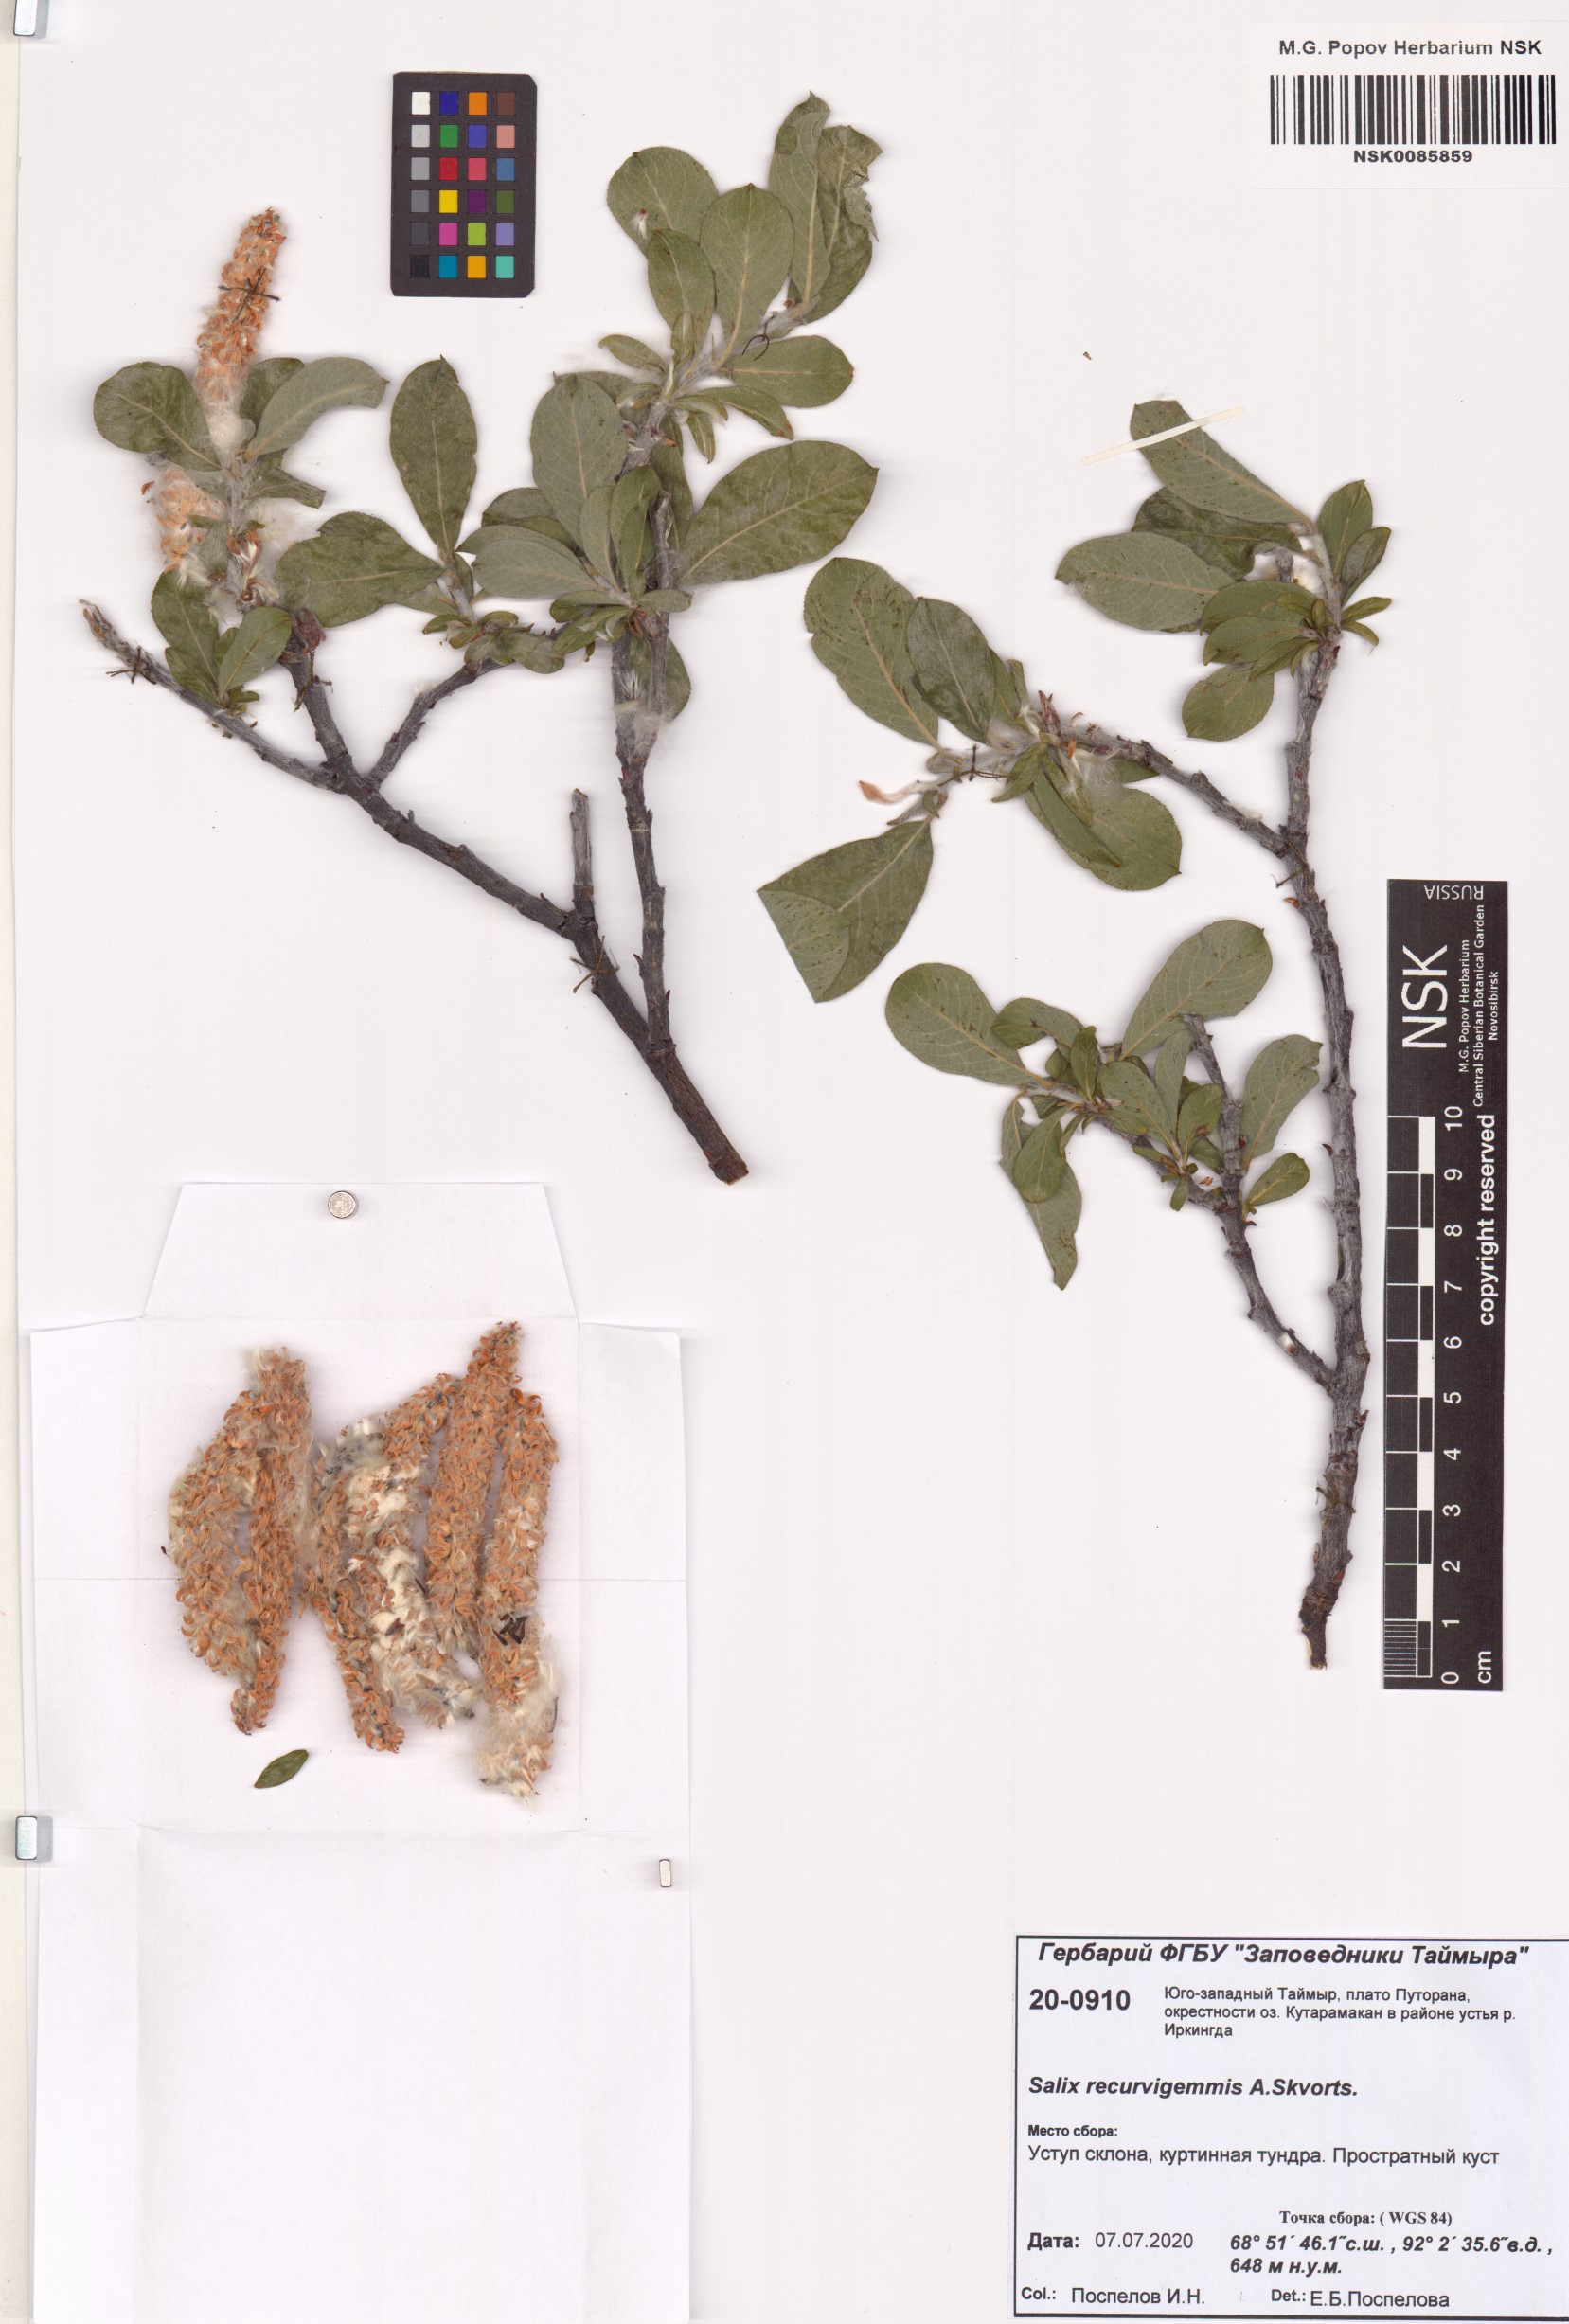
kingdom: Plantae
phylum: Tracheophyta
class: Magnoliopsida
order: Malpighiales
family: Salicaceae
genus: Salix
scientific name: Salix recurvigemmata
